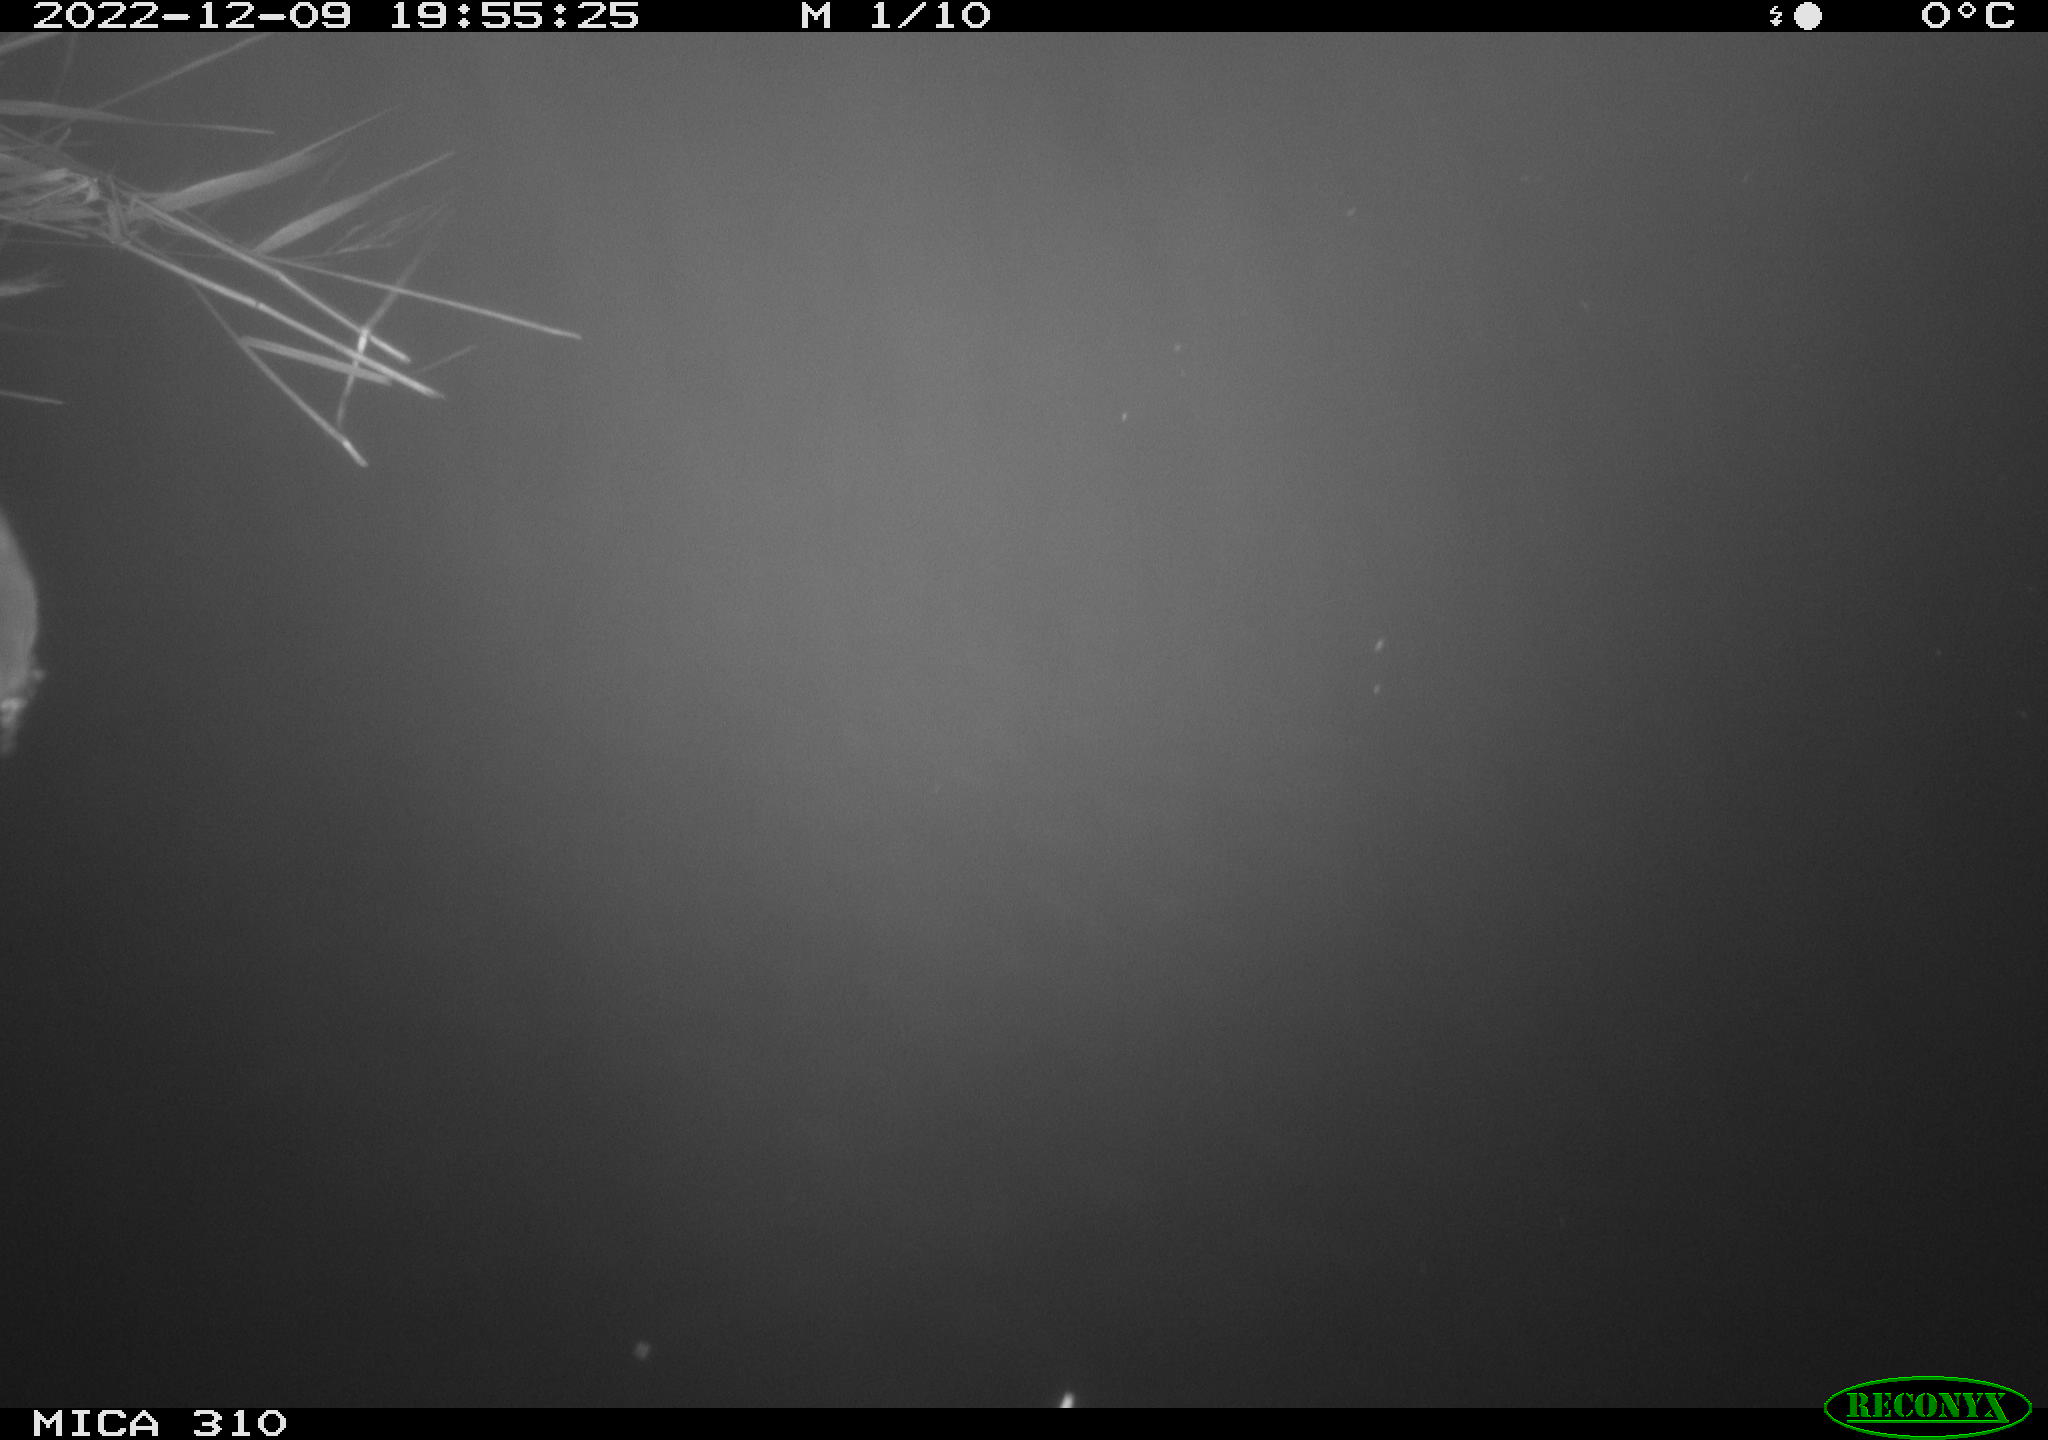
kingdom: Animalia
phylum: Chordata
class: Mammalia
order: Rodentia
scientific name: Rodentia
